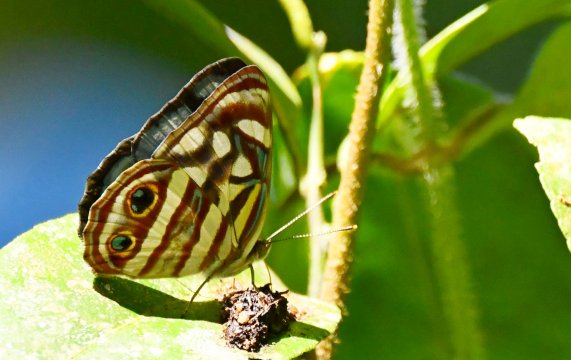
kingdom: Animalia
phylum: Arthropoda
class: Insecta
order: Lepidoptera
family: Nymphalidae
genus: Dynamine
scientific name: Dynamine mylitta
